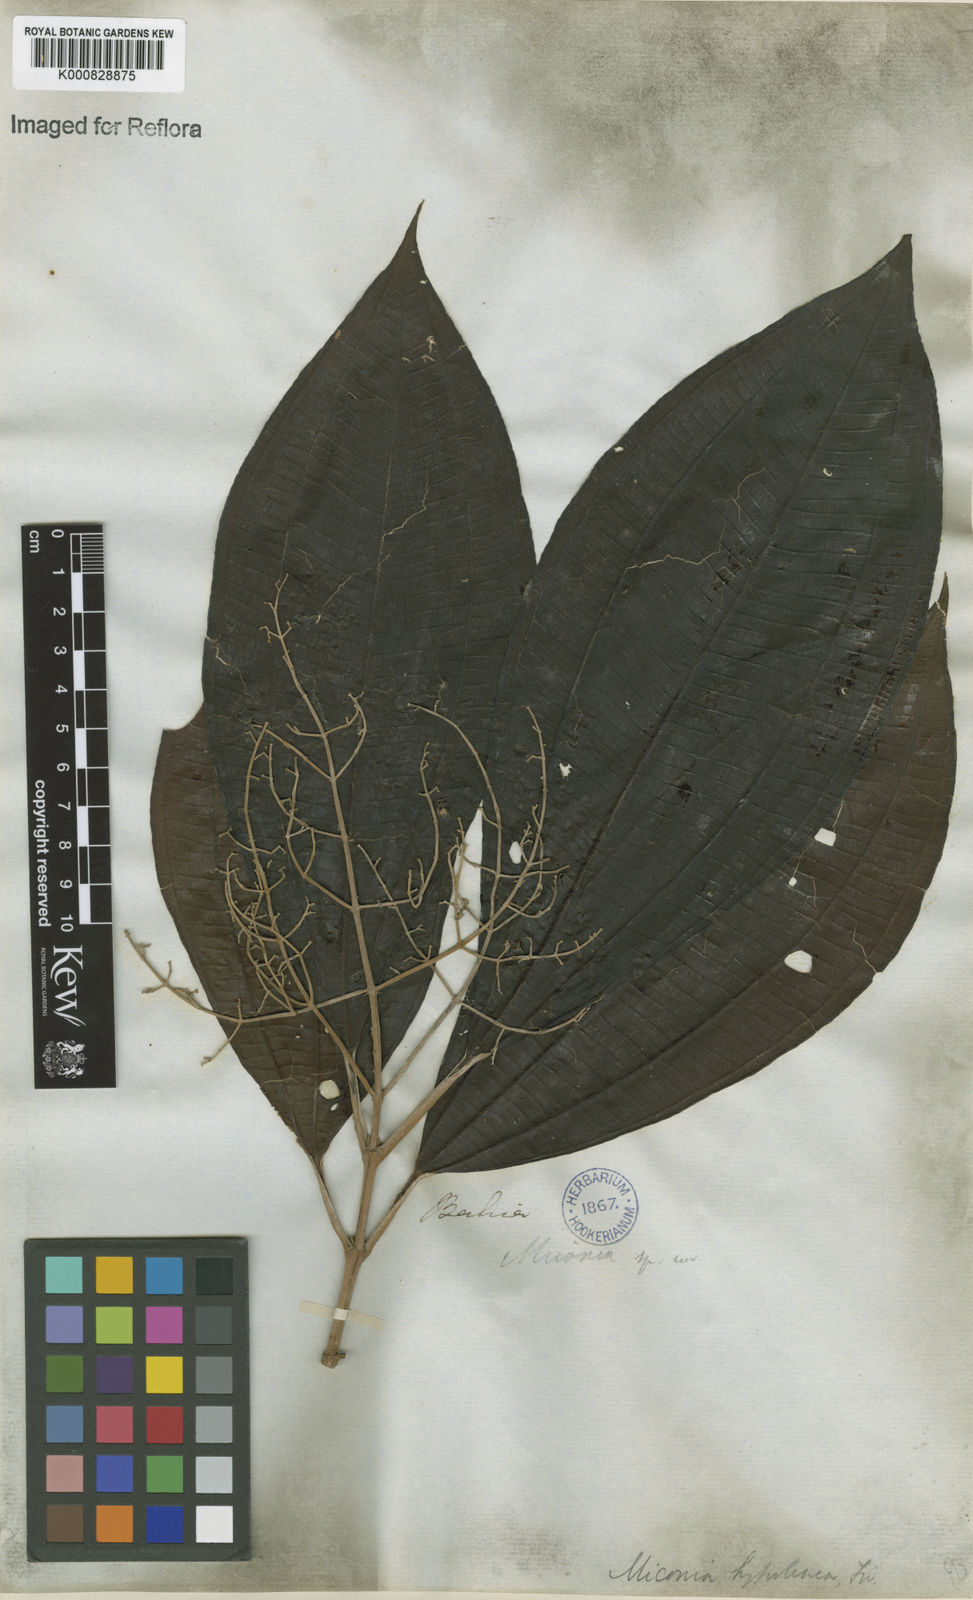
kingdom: Plantae
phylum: Tracheophyta
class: Magnoliopsida
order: Myrtales
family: Melastomataceae
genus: Miconia
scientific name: Miconia hypoleuca
